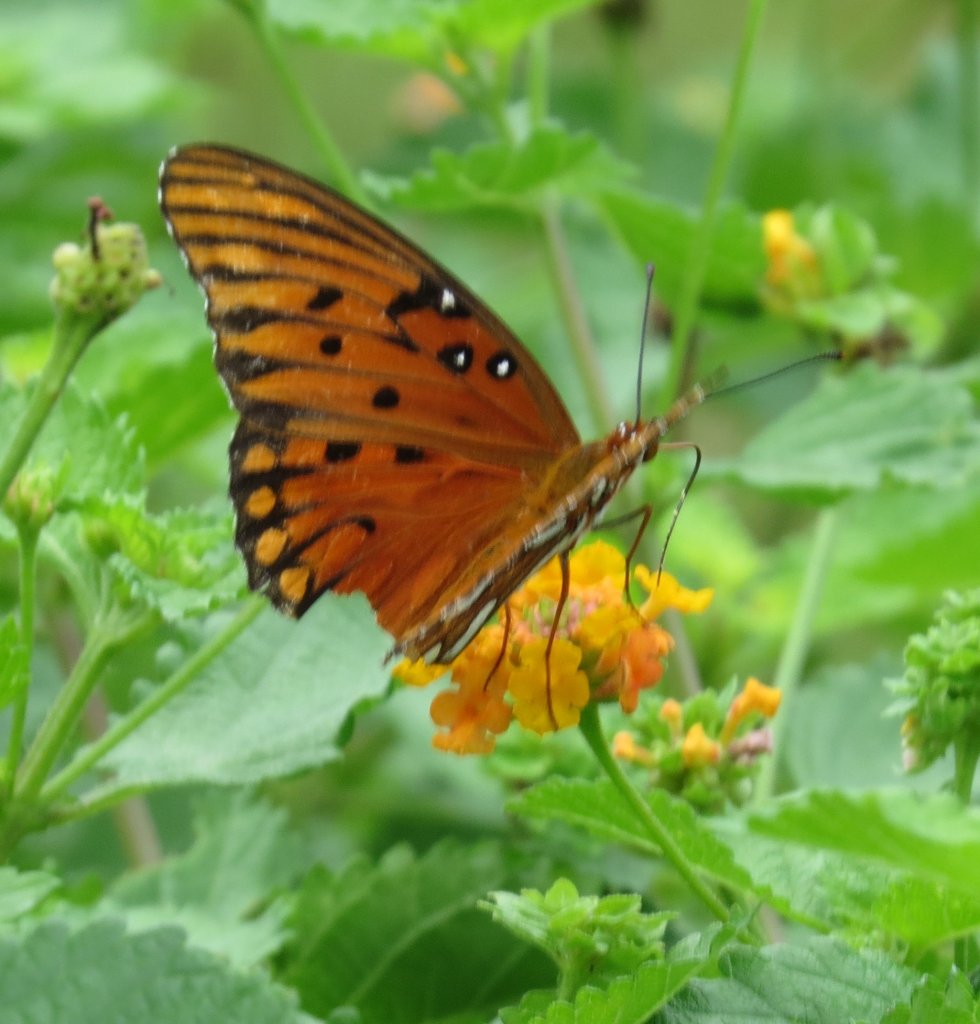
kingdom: Animalia
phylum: Arthropoda
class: Insecta
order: Lepidoptera
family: Nymphalidae
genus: Dione
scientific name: Dione vanillae
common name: Gulf Fritillary
